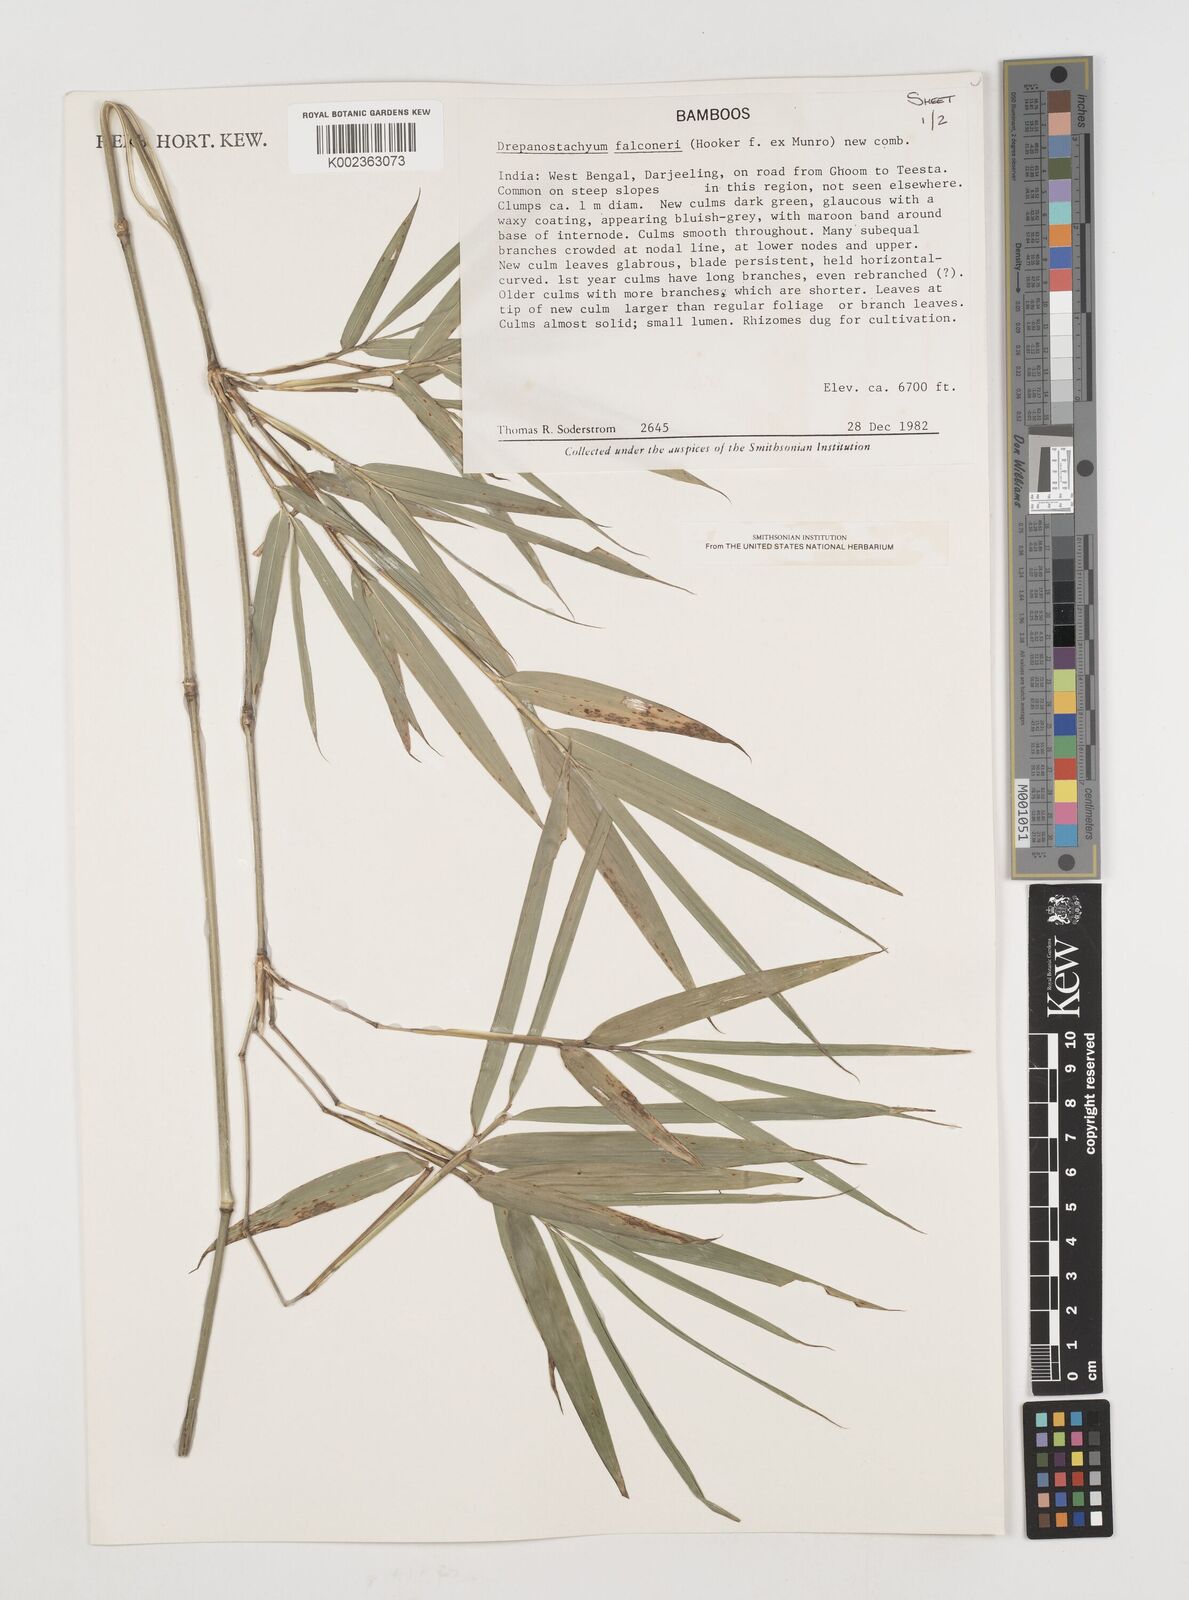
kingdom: Plantae
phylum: Tracheophyta
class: Liliopsida
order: Poales
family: Poaceae
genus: Drepanostachyum
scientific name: Drepanostachyum
